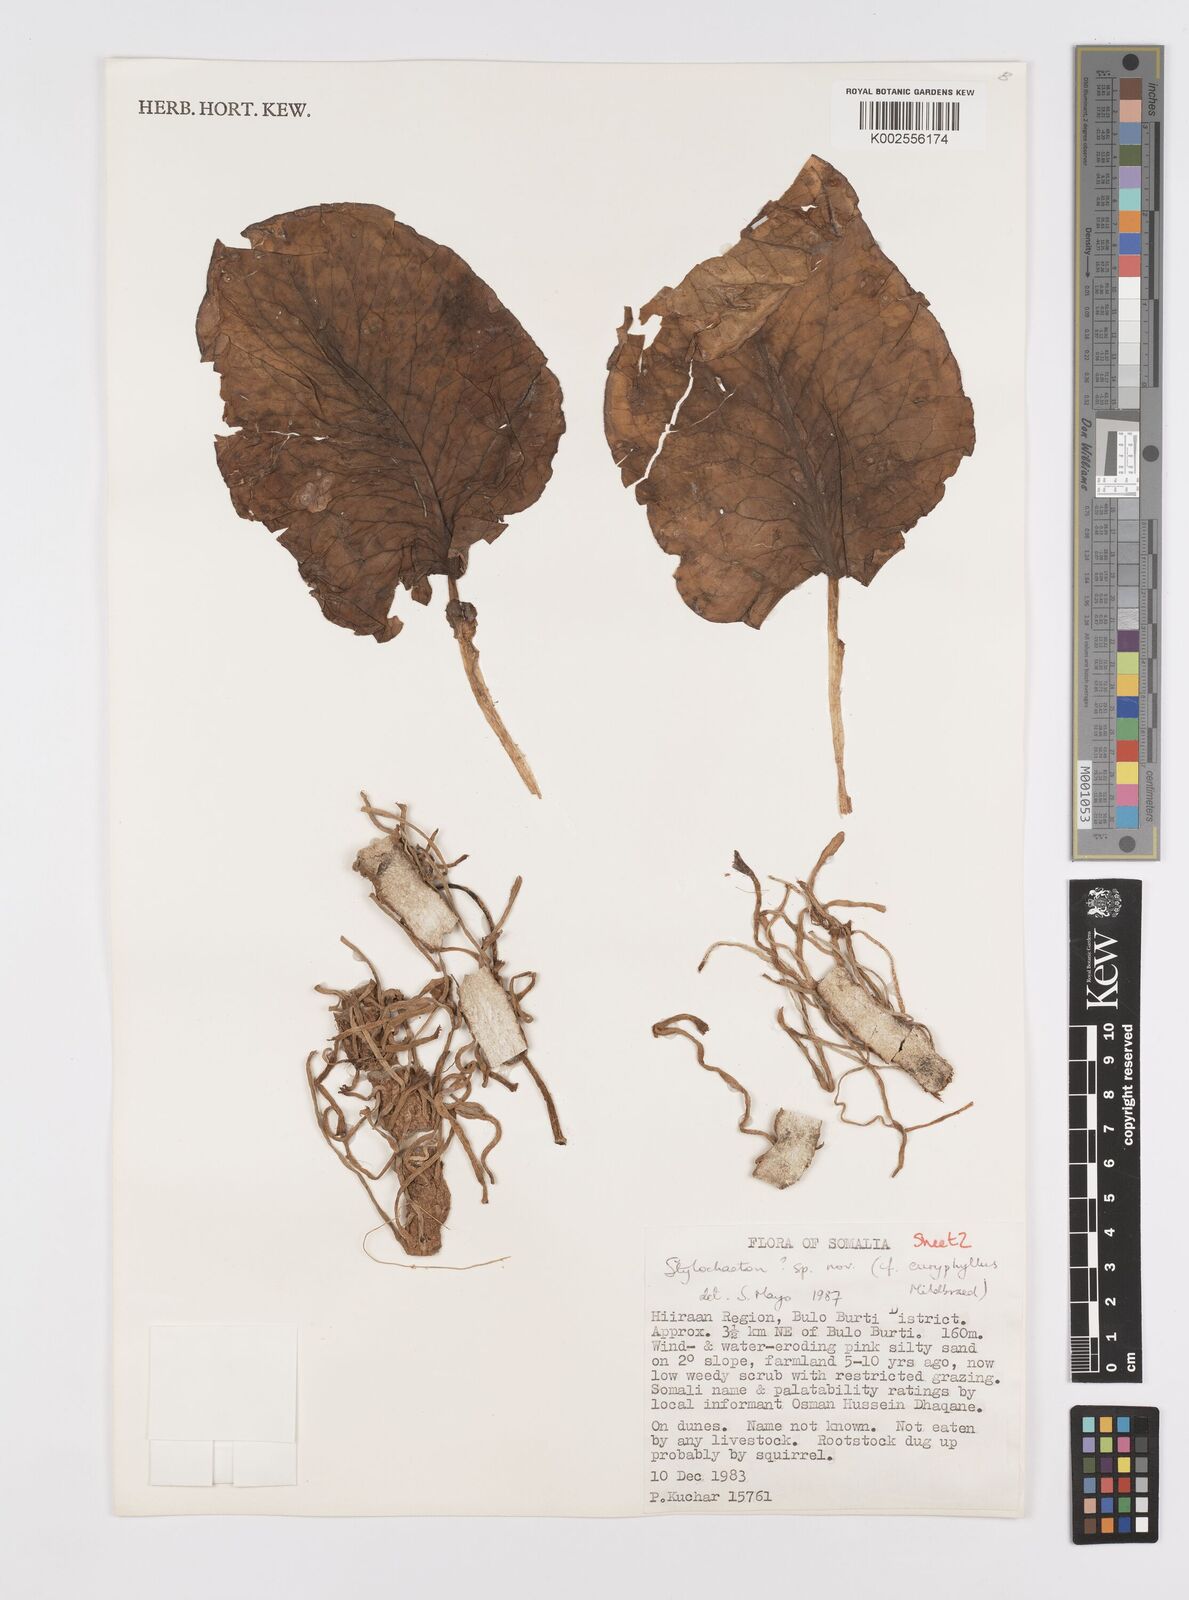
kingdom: Plantae
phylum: Tracheophyta
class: Liliopsida
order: Alismatales
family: Araceae
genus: Stylochaeton
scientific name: Stylochaeton
